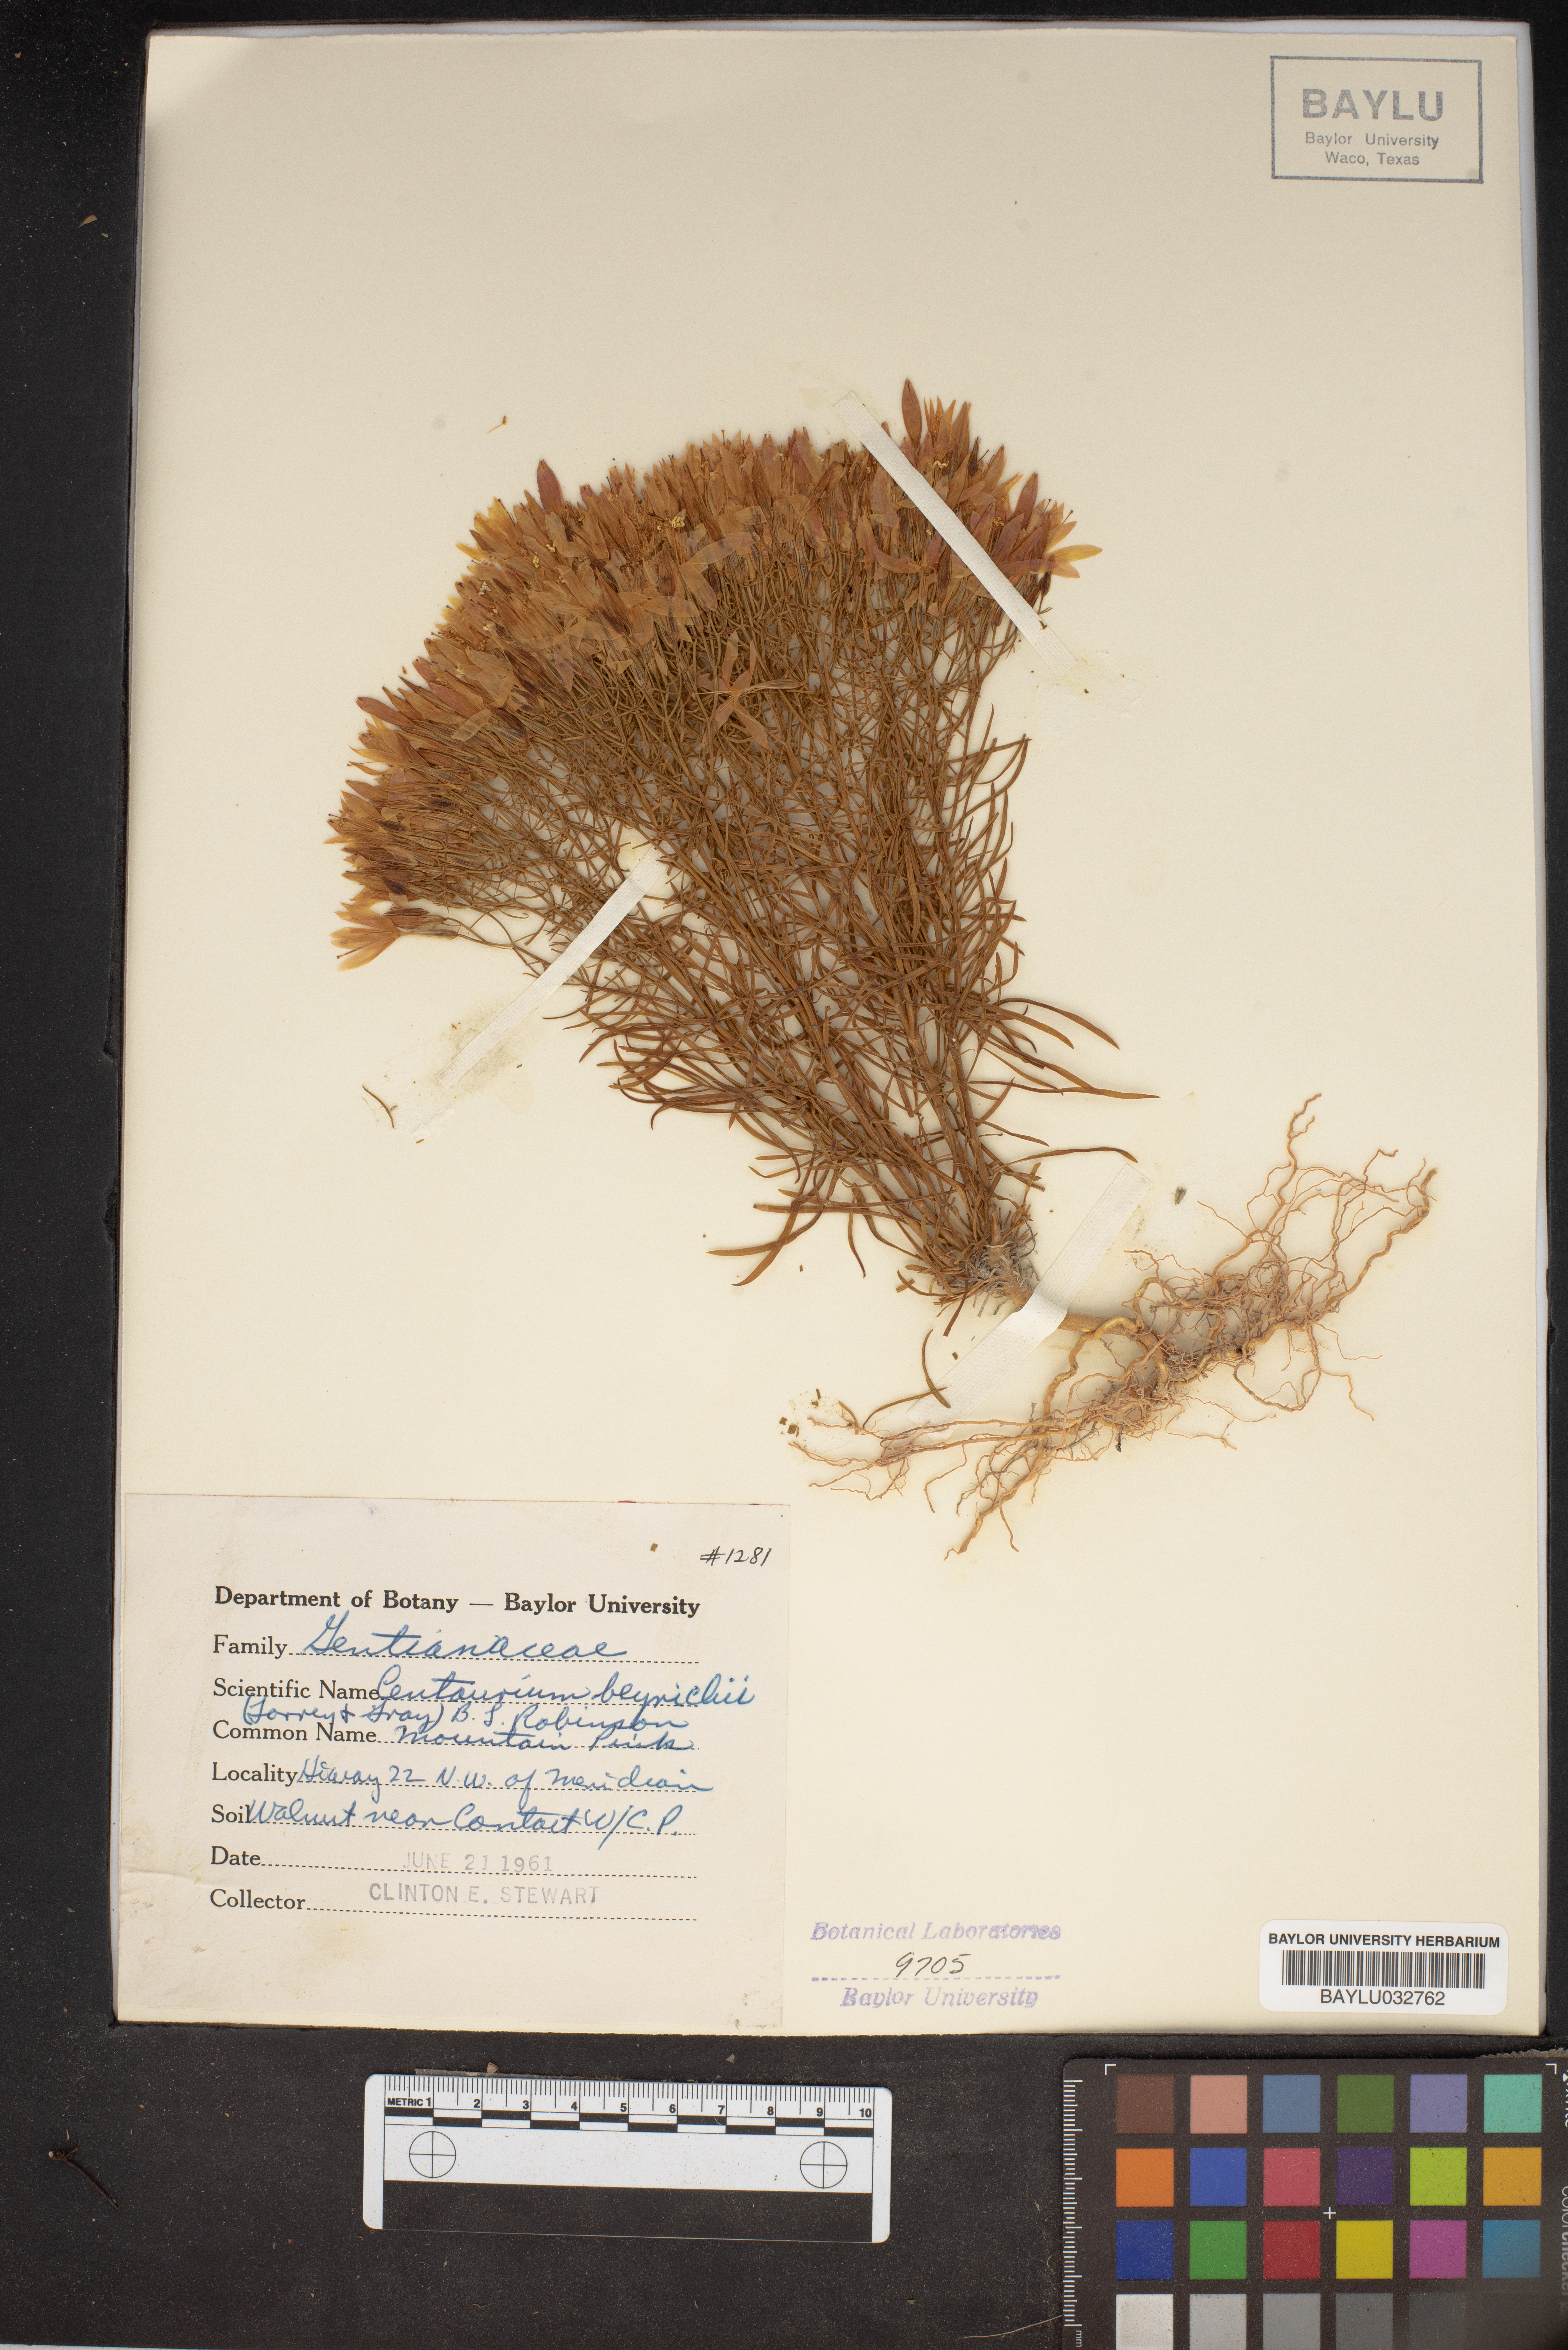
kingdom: Plantae
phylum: Tracheophyta
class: Magnoliopsida
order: Gentianales
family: Gentianaceae
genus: Zeltnera
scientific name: Zeltnera beyrichii
